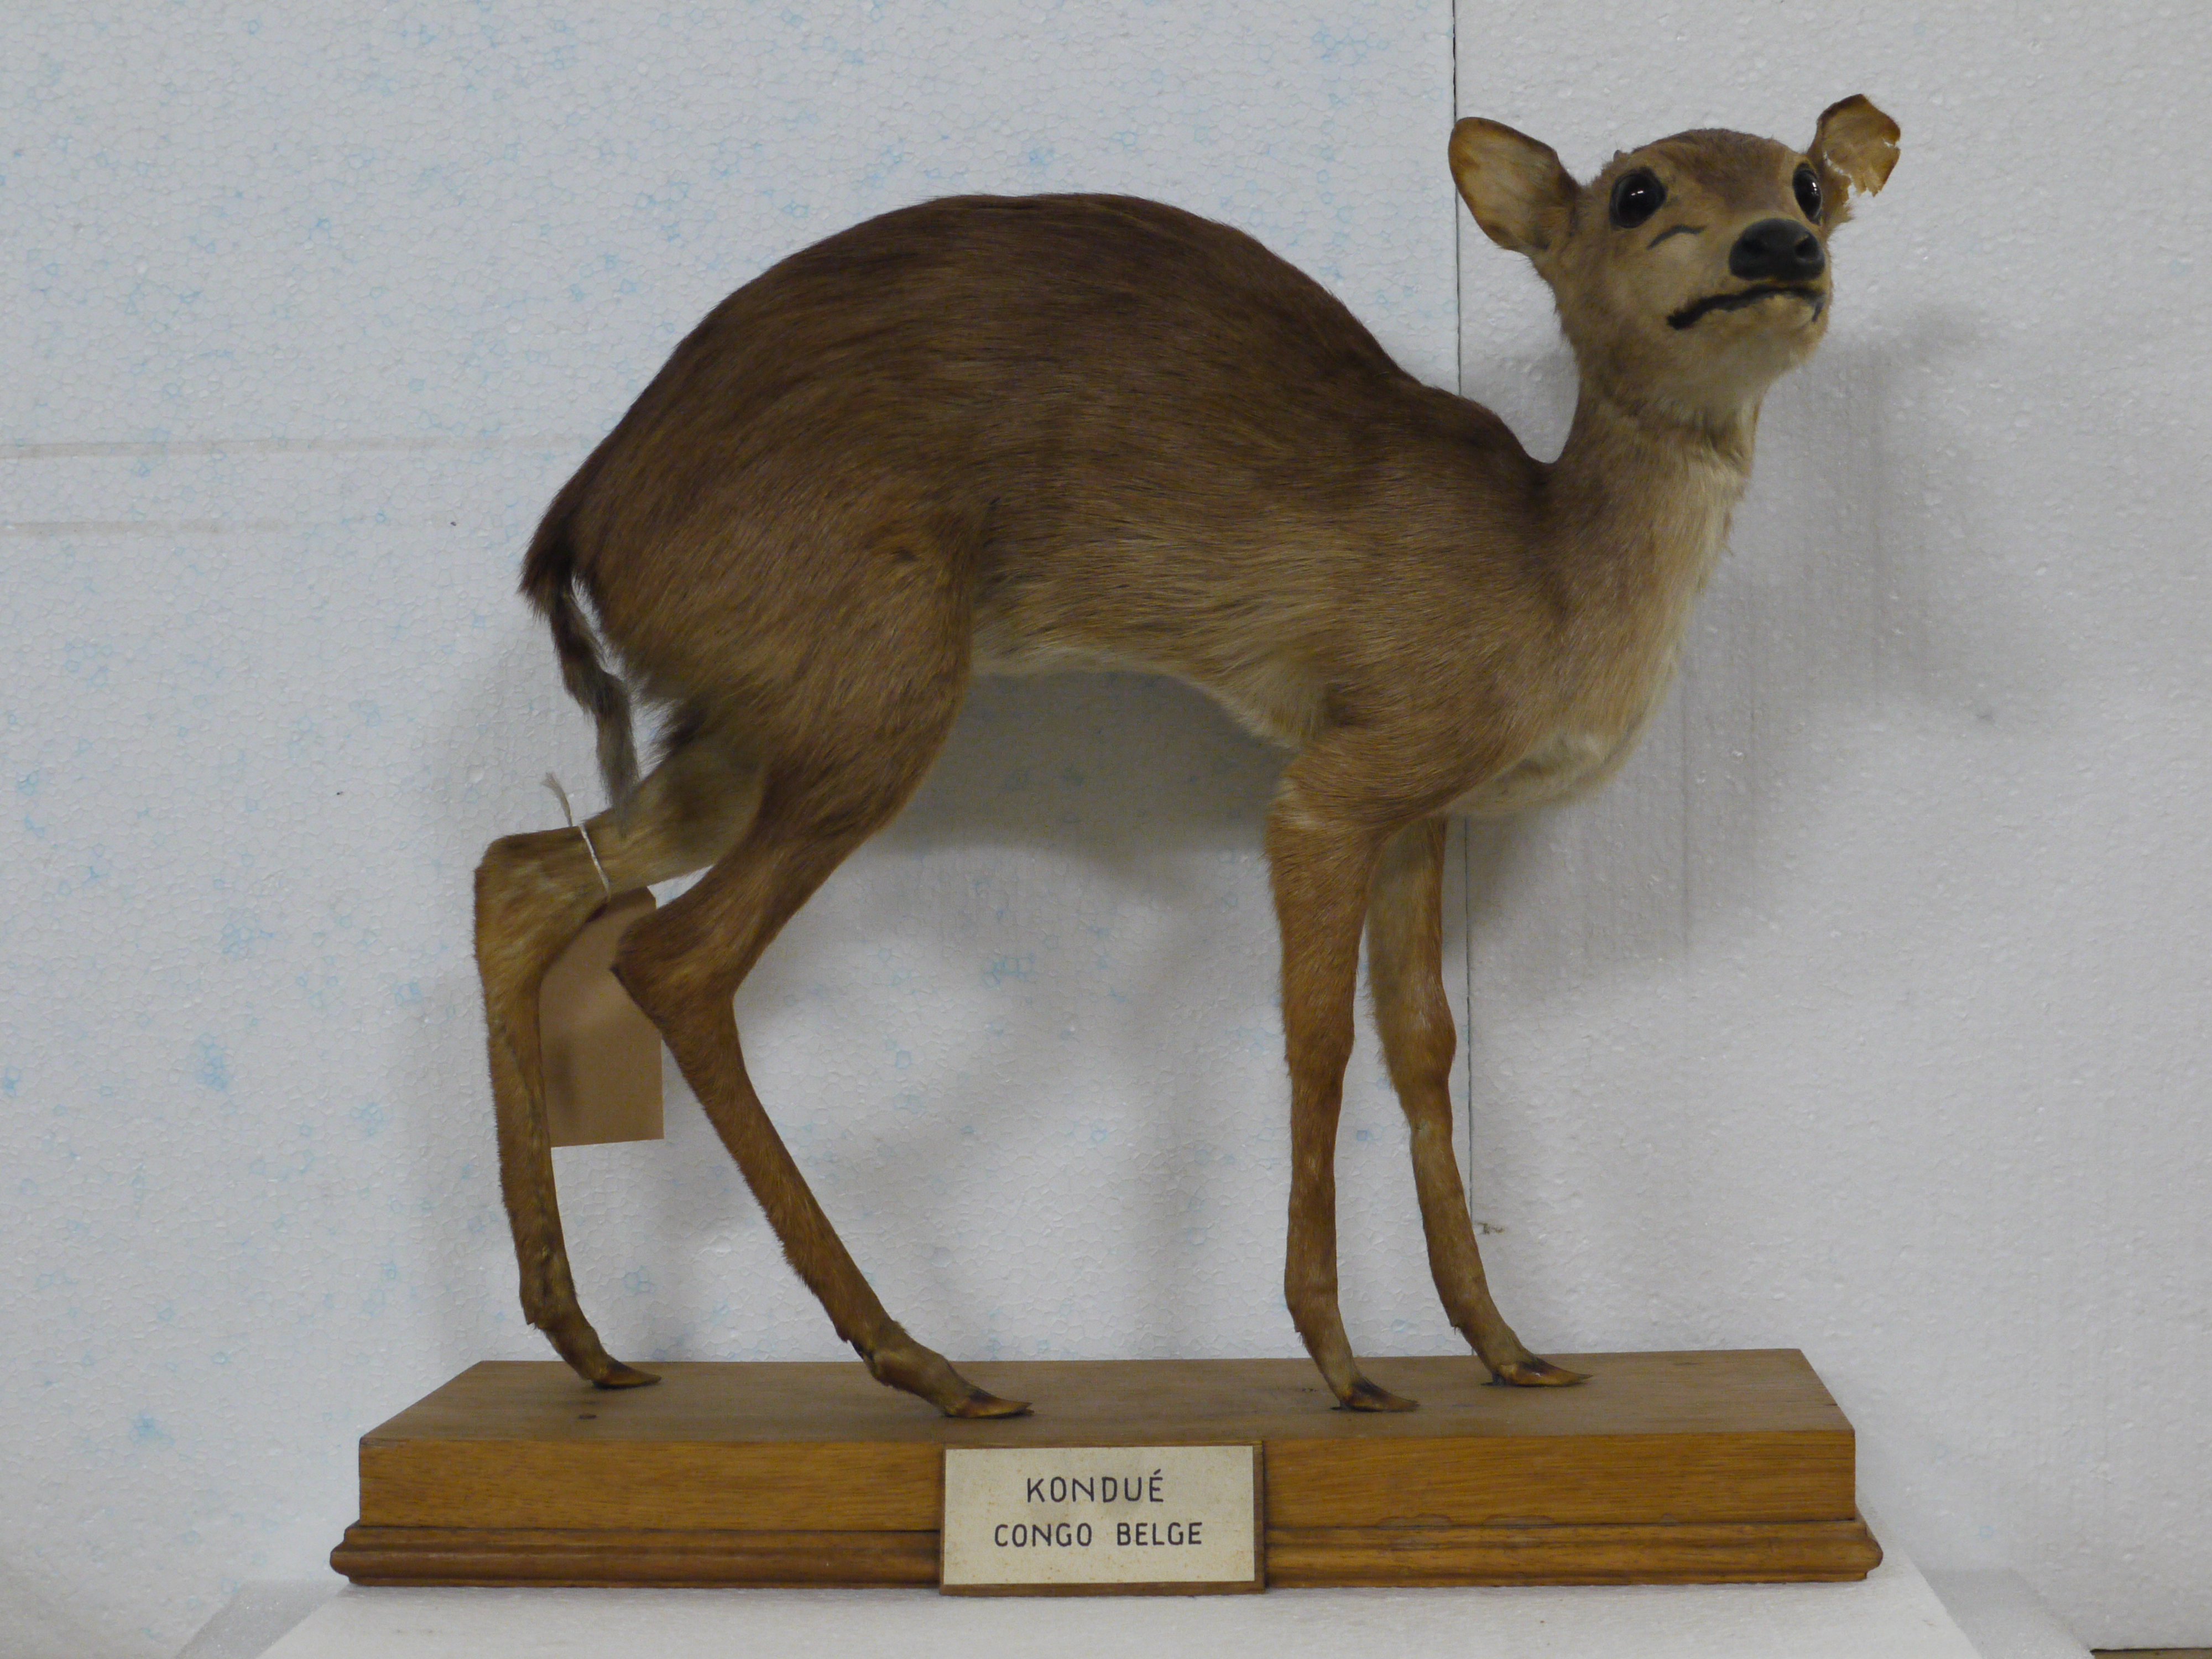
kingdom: Animalia
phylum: Chordata
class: Mammalia
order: Artiodactyla
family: Bovidae
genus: Cephalophus
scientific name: Cephalophus leucogaster
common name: White-bellied duiker
